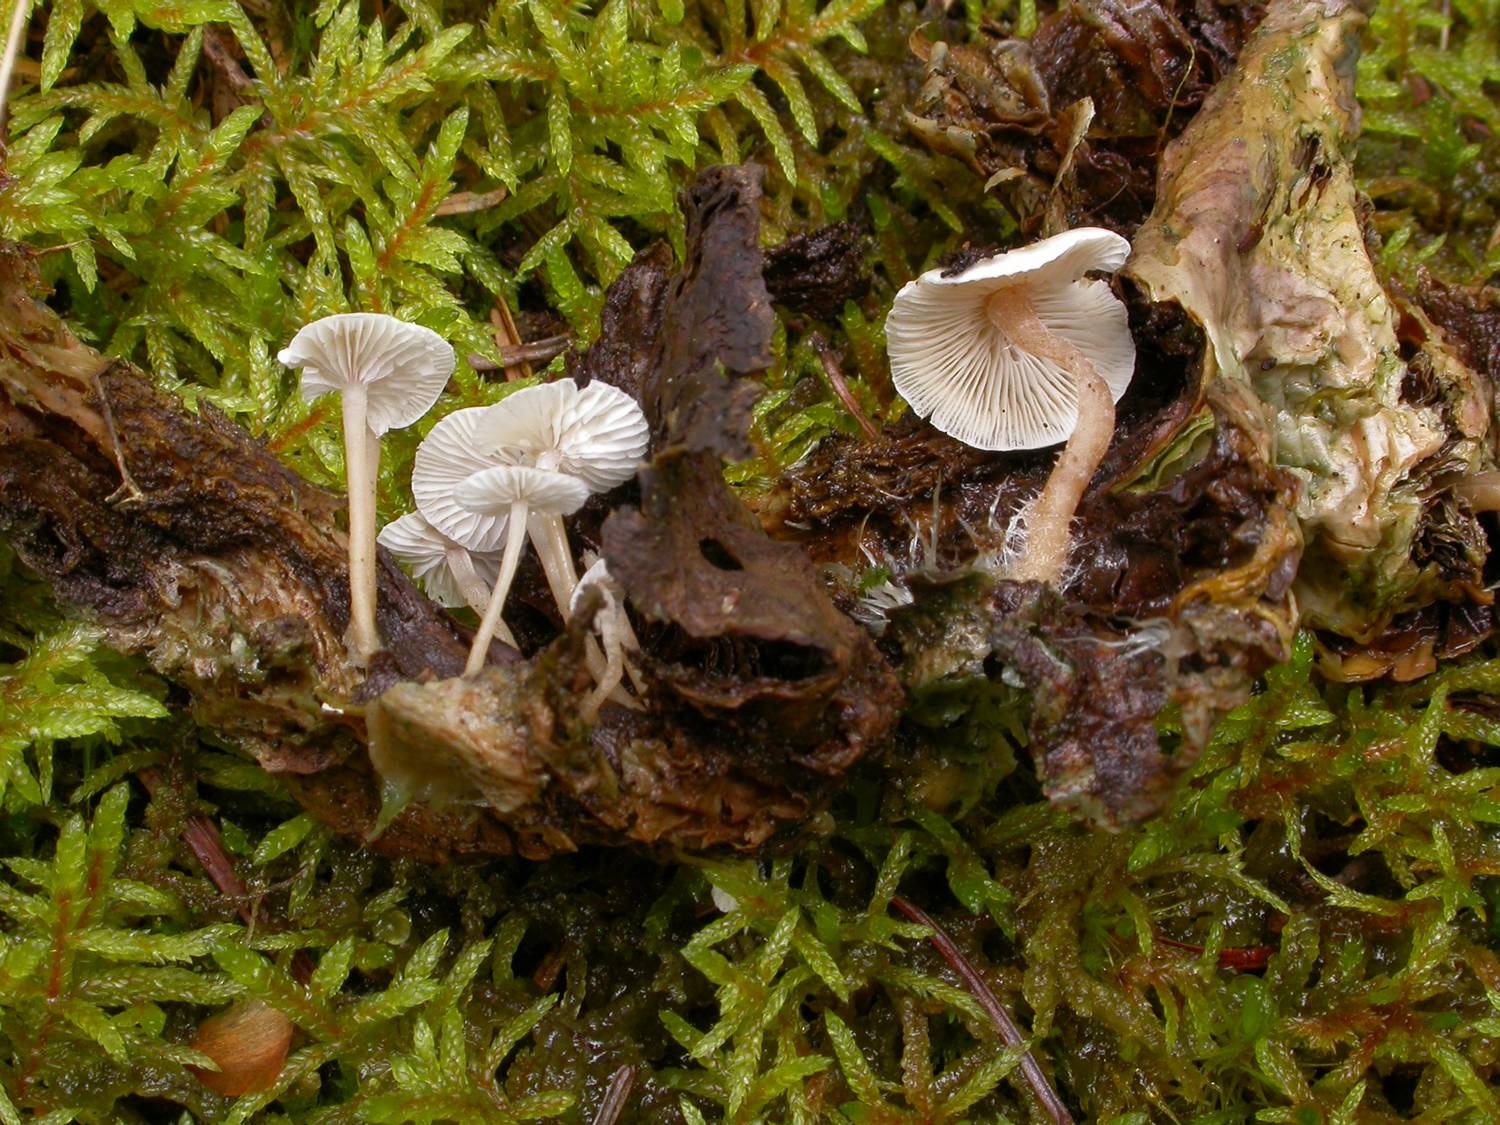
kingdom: Fungi
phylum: Basidiomycota
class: Agaricomycetes
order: Agaricales
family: Tricholomataceae
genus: Collybia
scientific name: Collybia cirrhata
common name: silke-lighat
